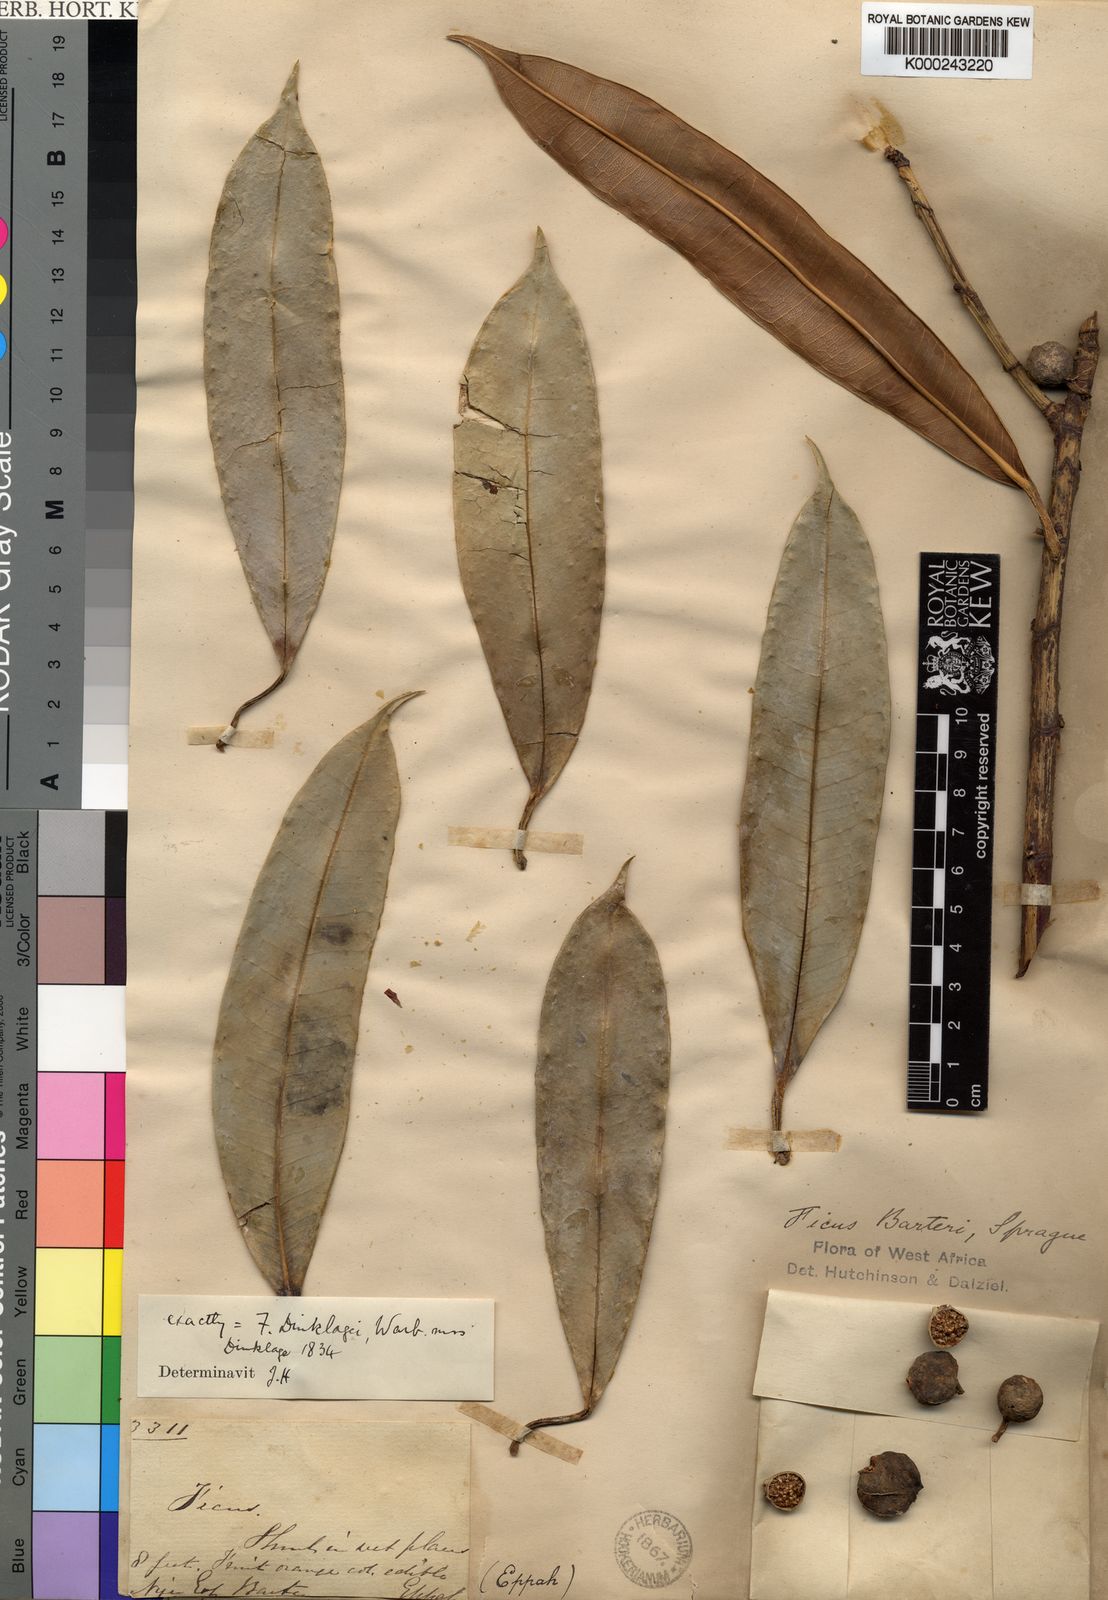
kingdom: Plantae
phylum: Tracheophyta
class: Magnoliopsida
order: Rosales
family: Moraceae
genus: Ficus
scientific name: Ficus barteri
